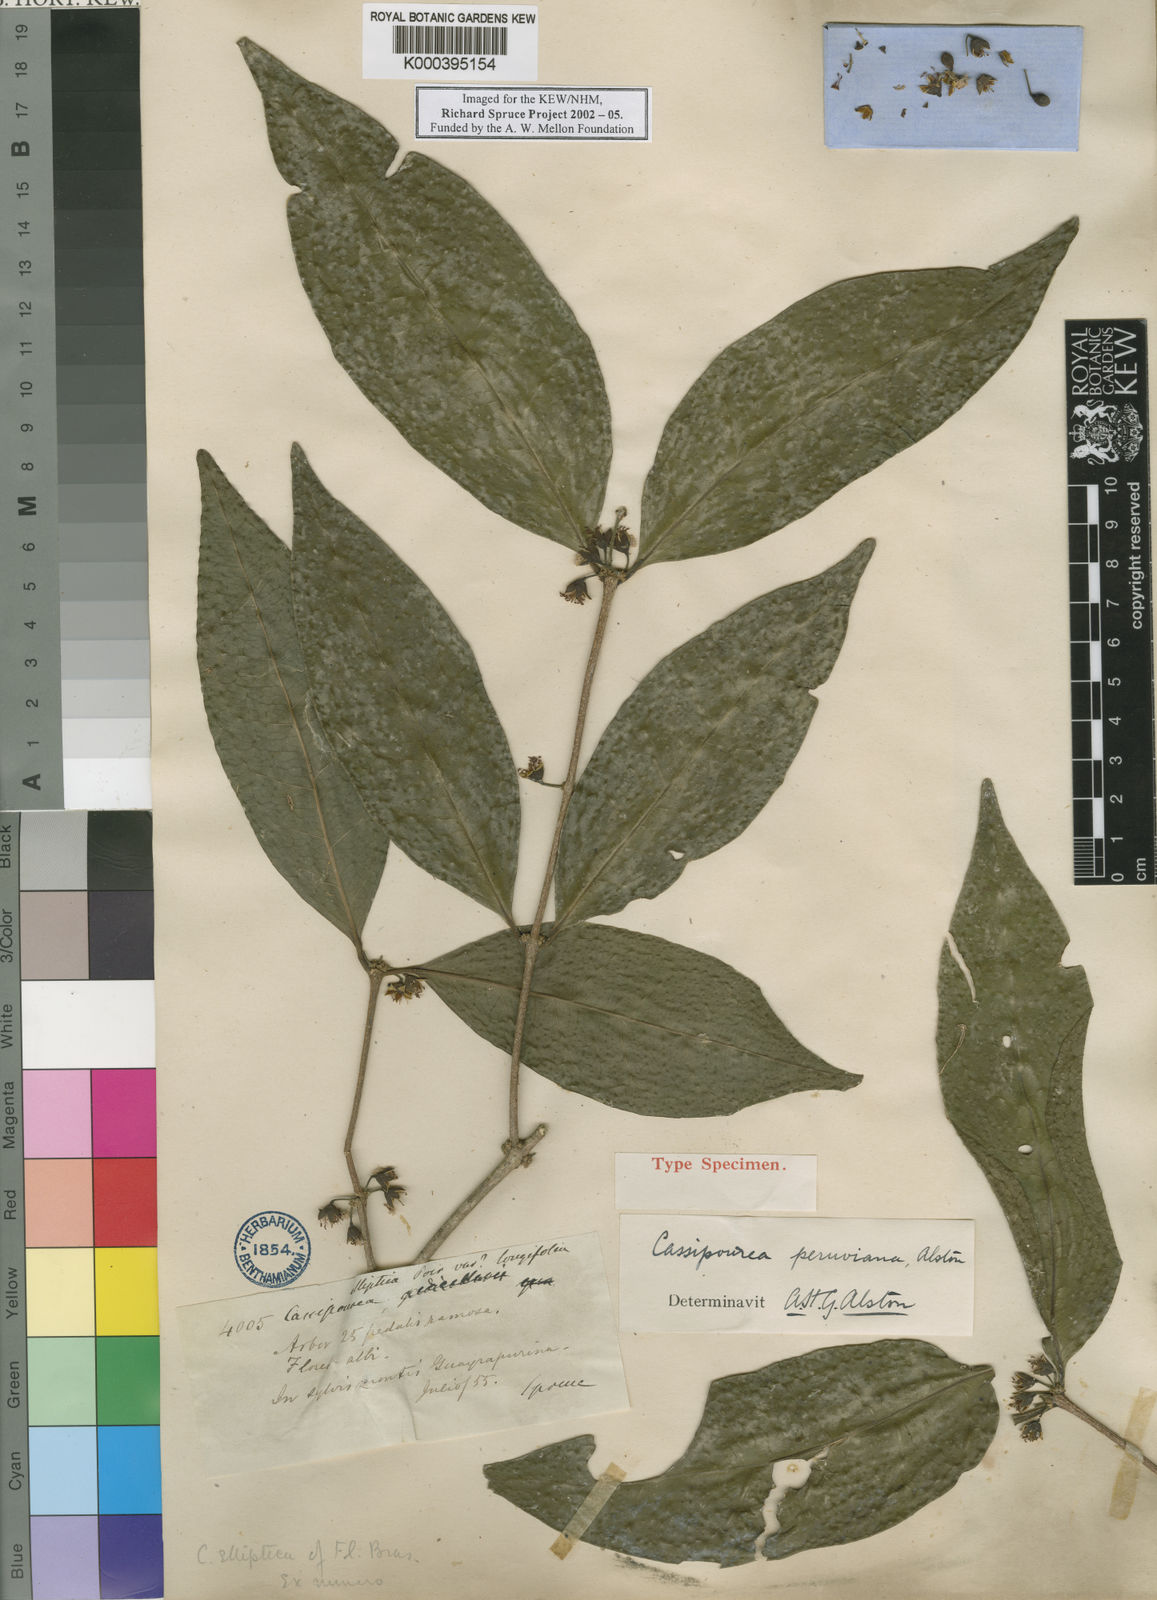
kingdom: Plantae
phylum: Tracheophyta
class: Magnoliopsida
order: Malpighiales
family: Rhizophoraceae
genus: Cassipourea
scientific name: Cassipourea peruviana
